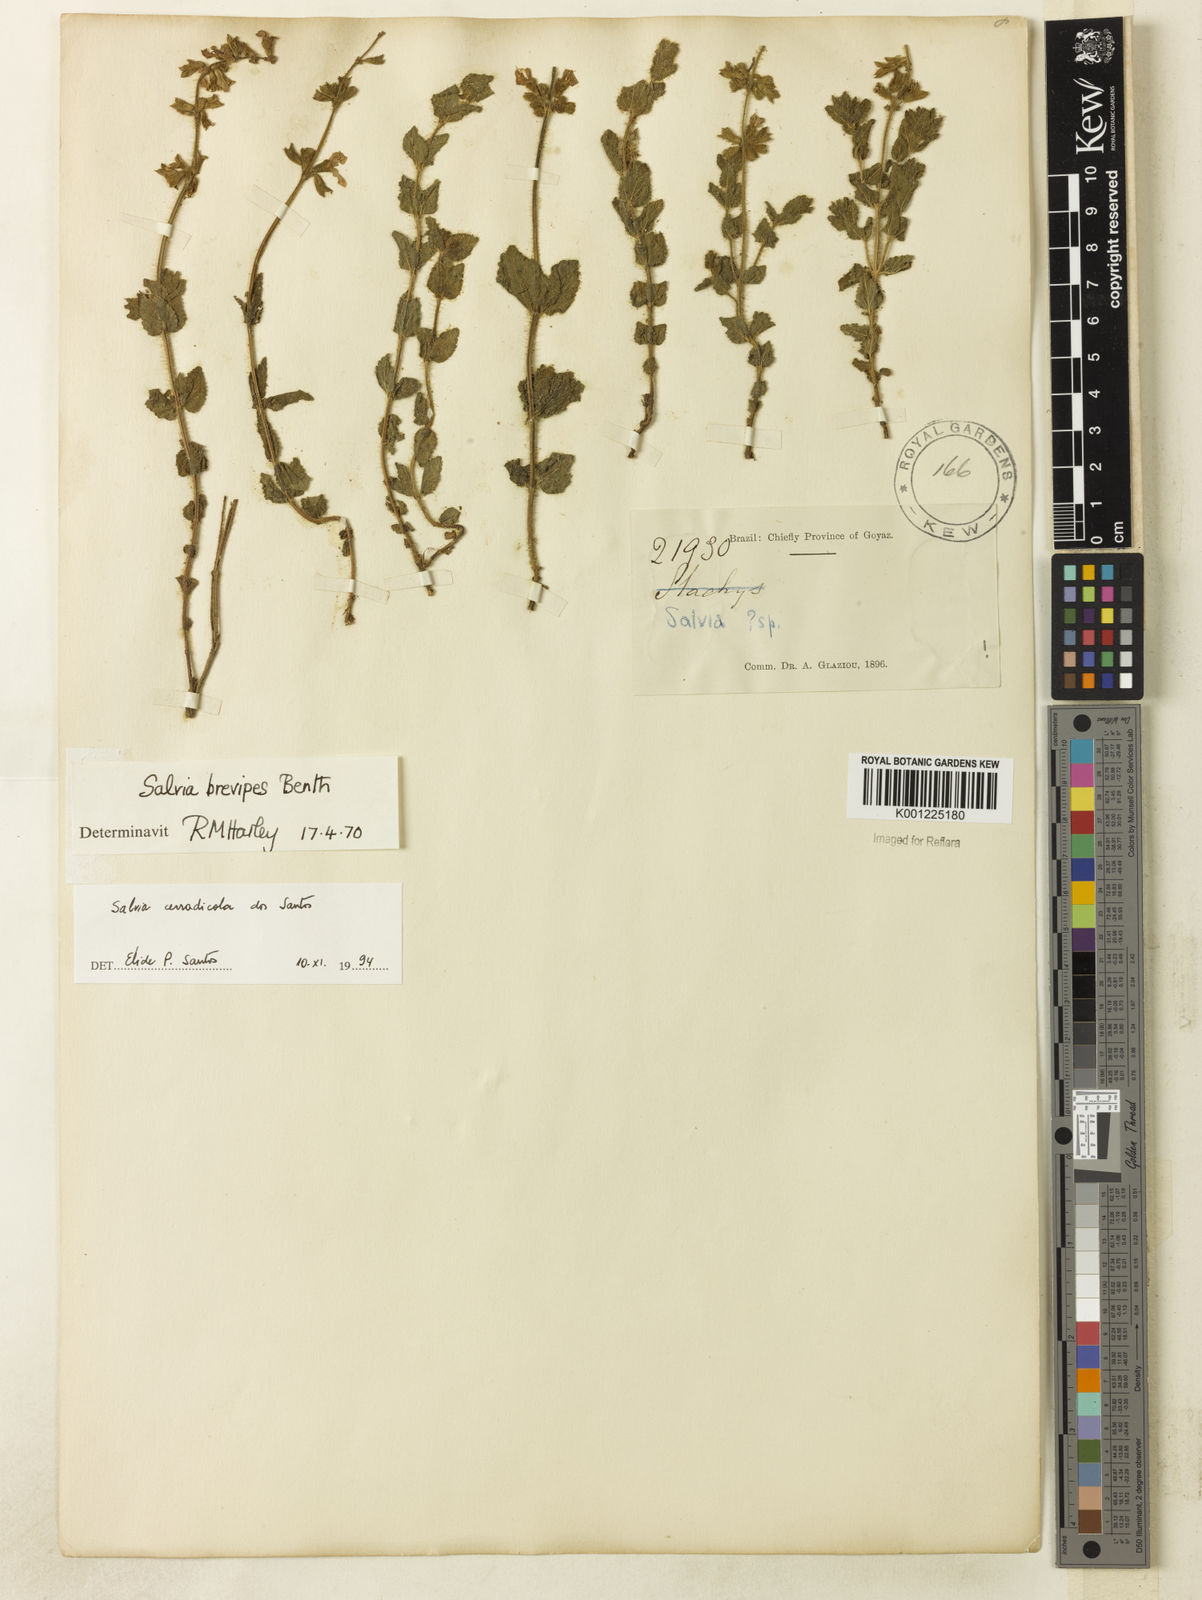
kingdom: Plantae
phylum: Tracheophyta
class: Magnoliopsida
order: Lamiales
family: Lamiaceae
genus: Salvia
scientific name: Salvia cerradicola
